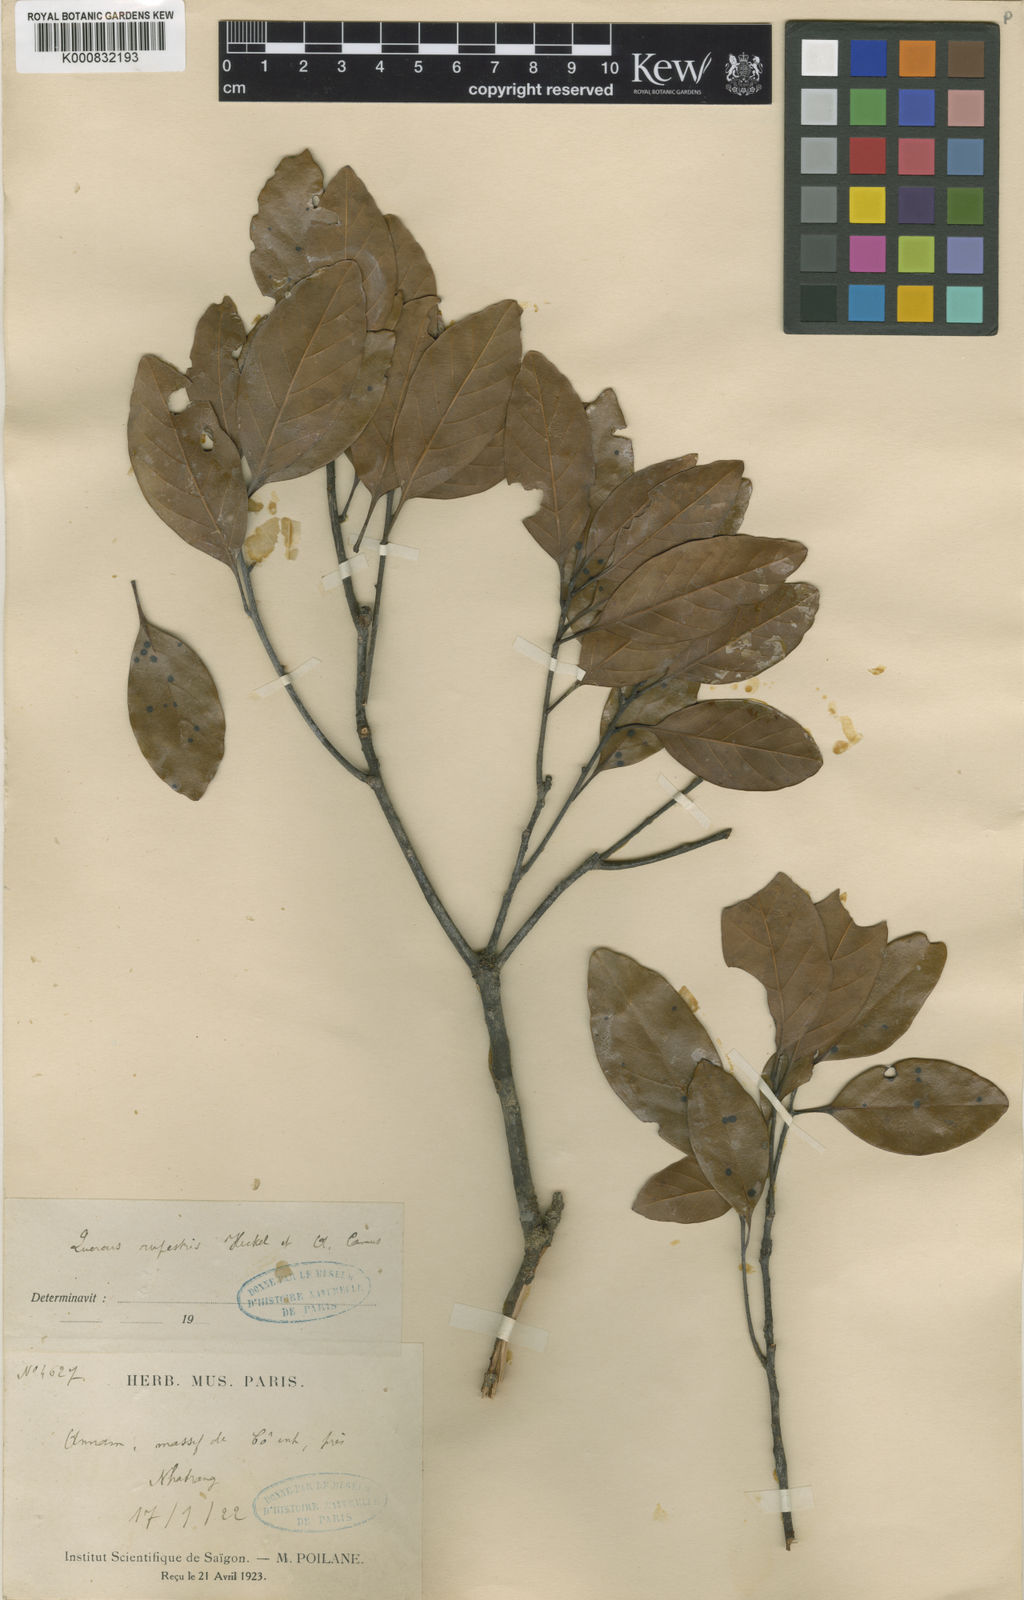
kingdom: Plantae
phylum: Tracheophyta
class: Magnoliopsida
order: Fagales
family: Fagaceae
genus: Quercus
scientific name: Quercus rupestris
